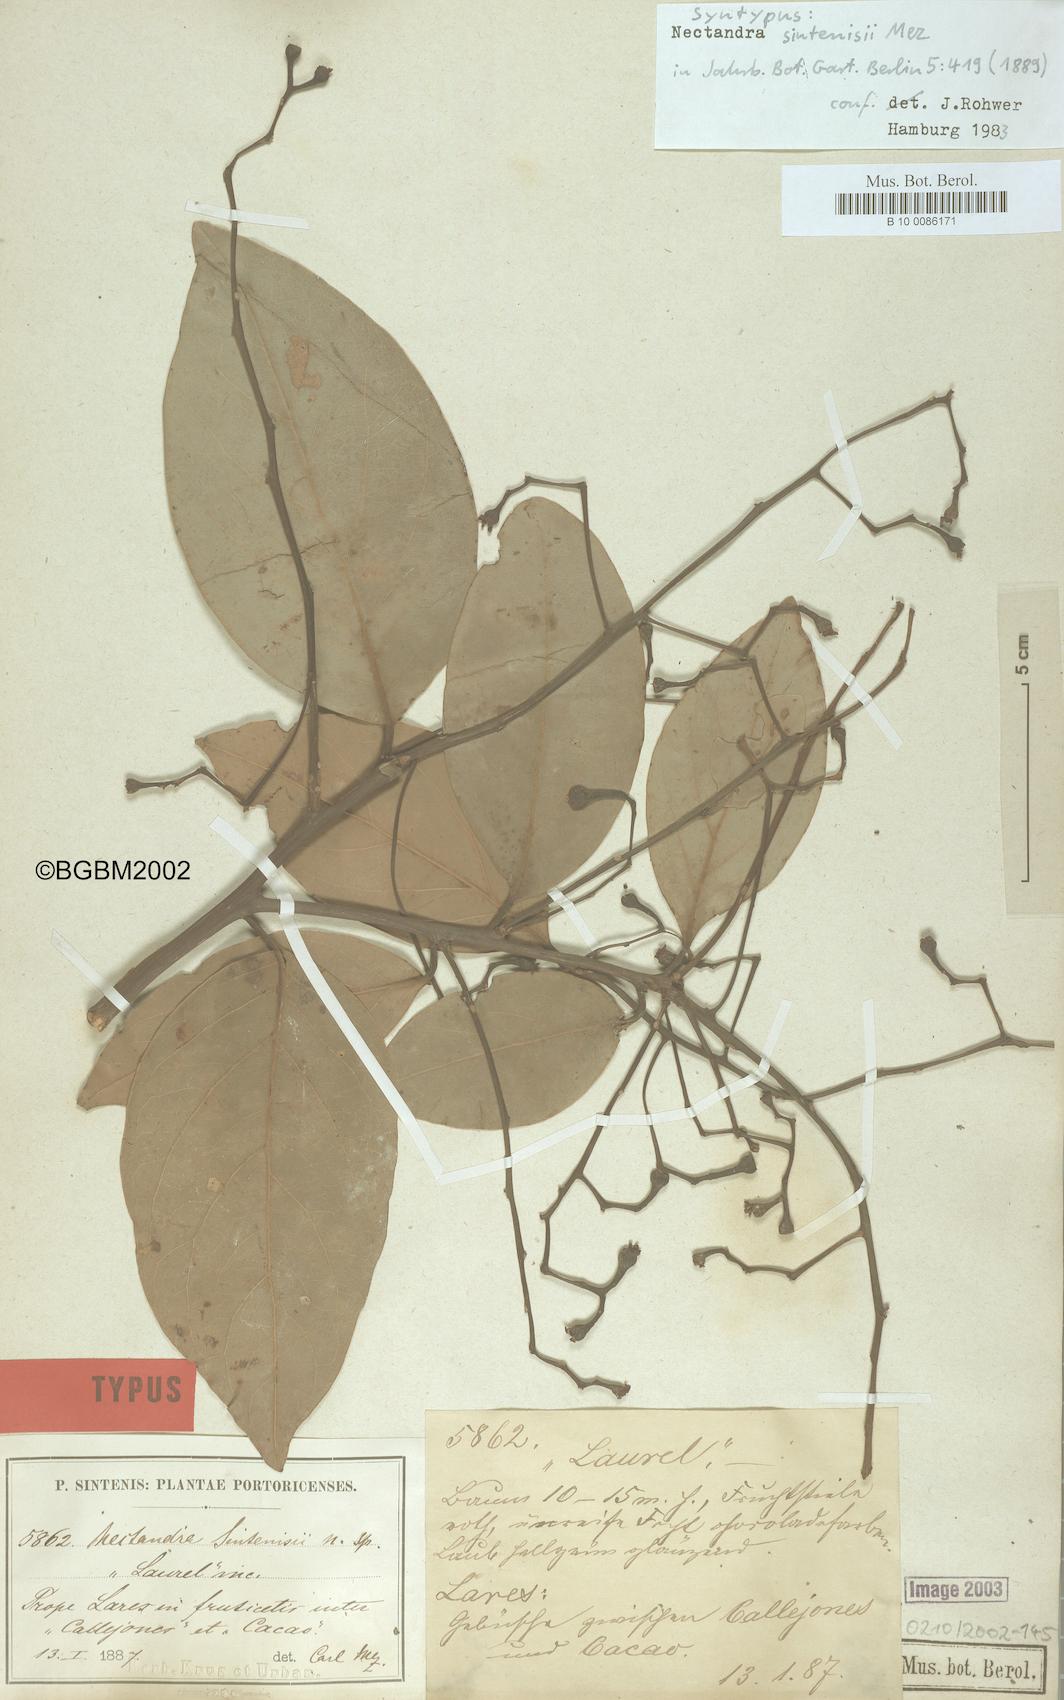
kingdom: Plantae
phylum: Tracheophyta
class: Magnoliopsida
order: Laurales
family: Lauraceae
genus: Nectandra
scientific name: Nectandra turbacensis
